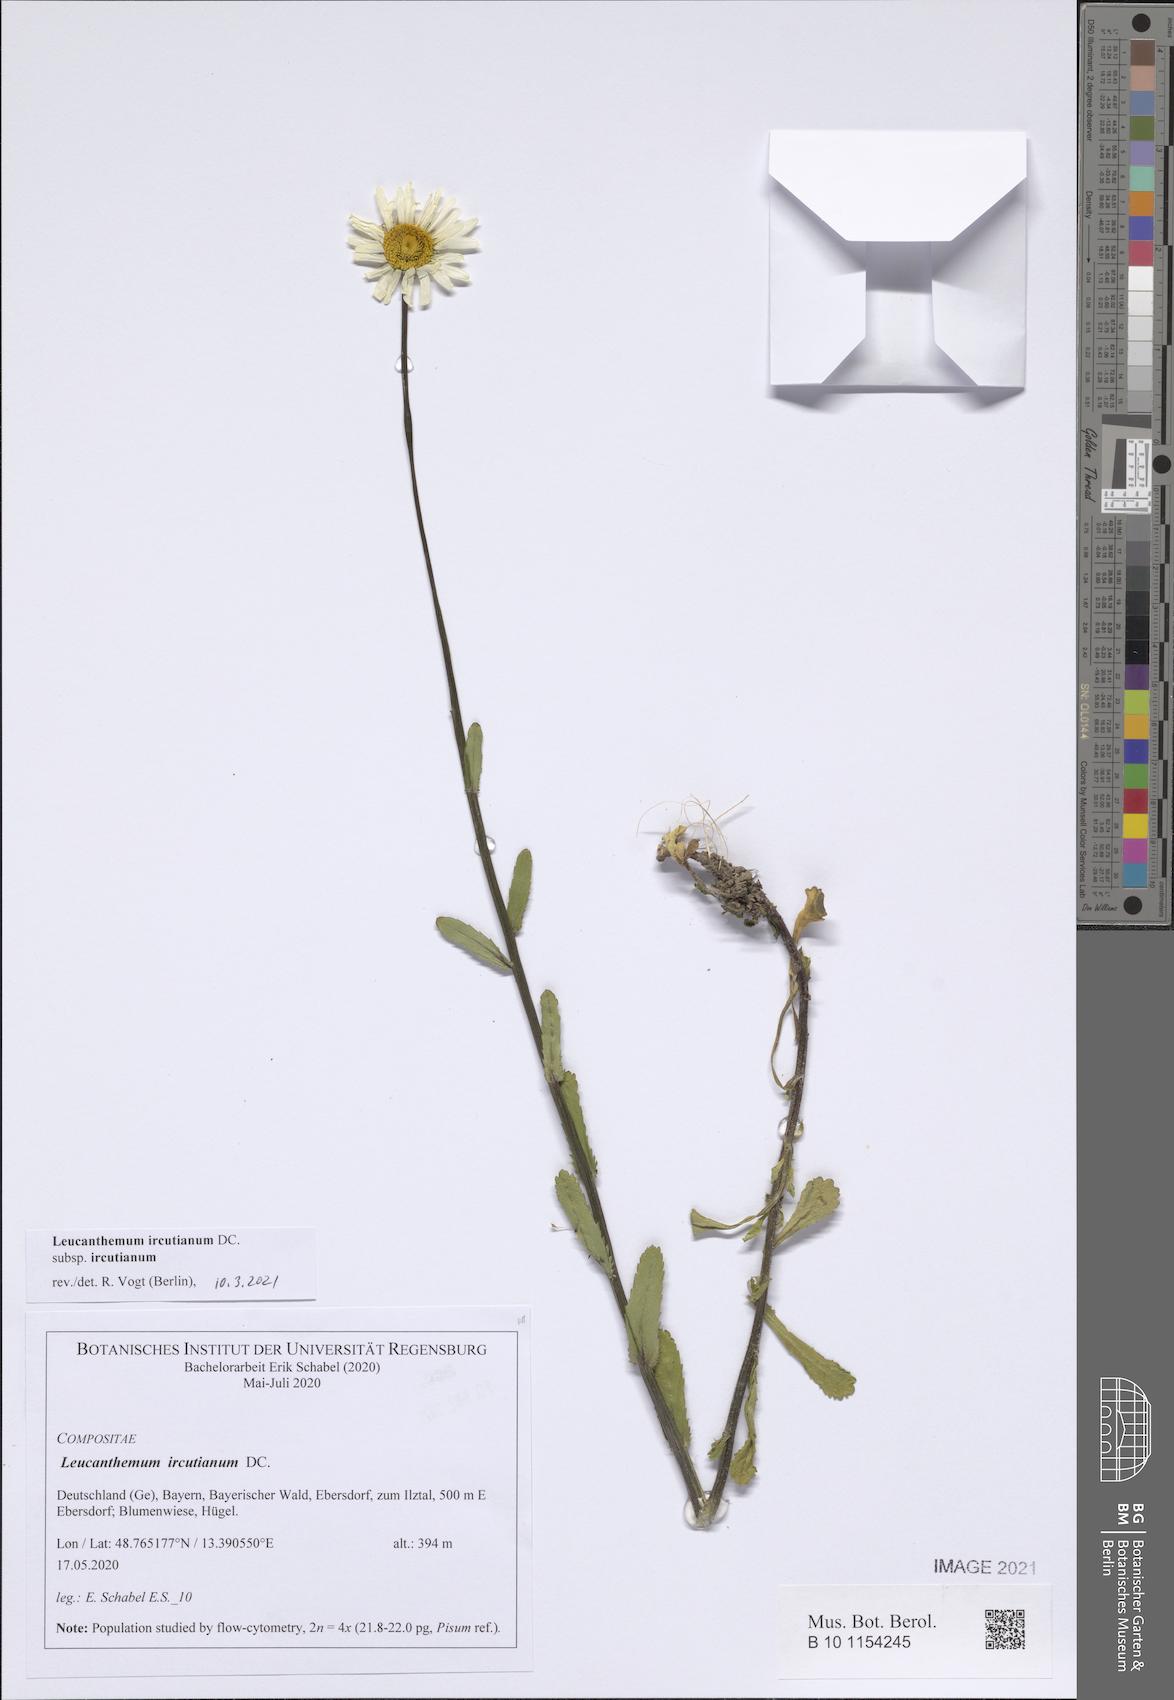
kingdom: Plantae
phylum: Tracheophyta
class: Magnoliopsida
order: Asterales
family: Asteraceae
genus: Leucanthemum
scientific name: Leucanthemum ircutianum
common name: Daisy
